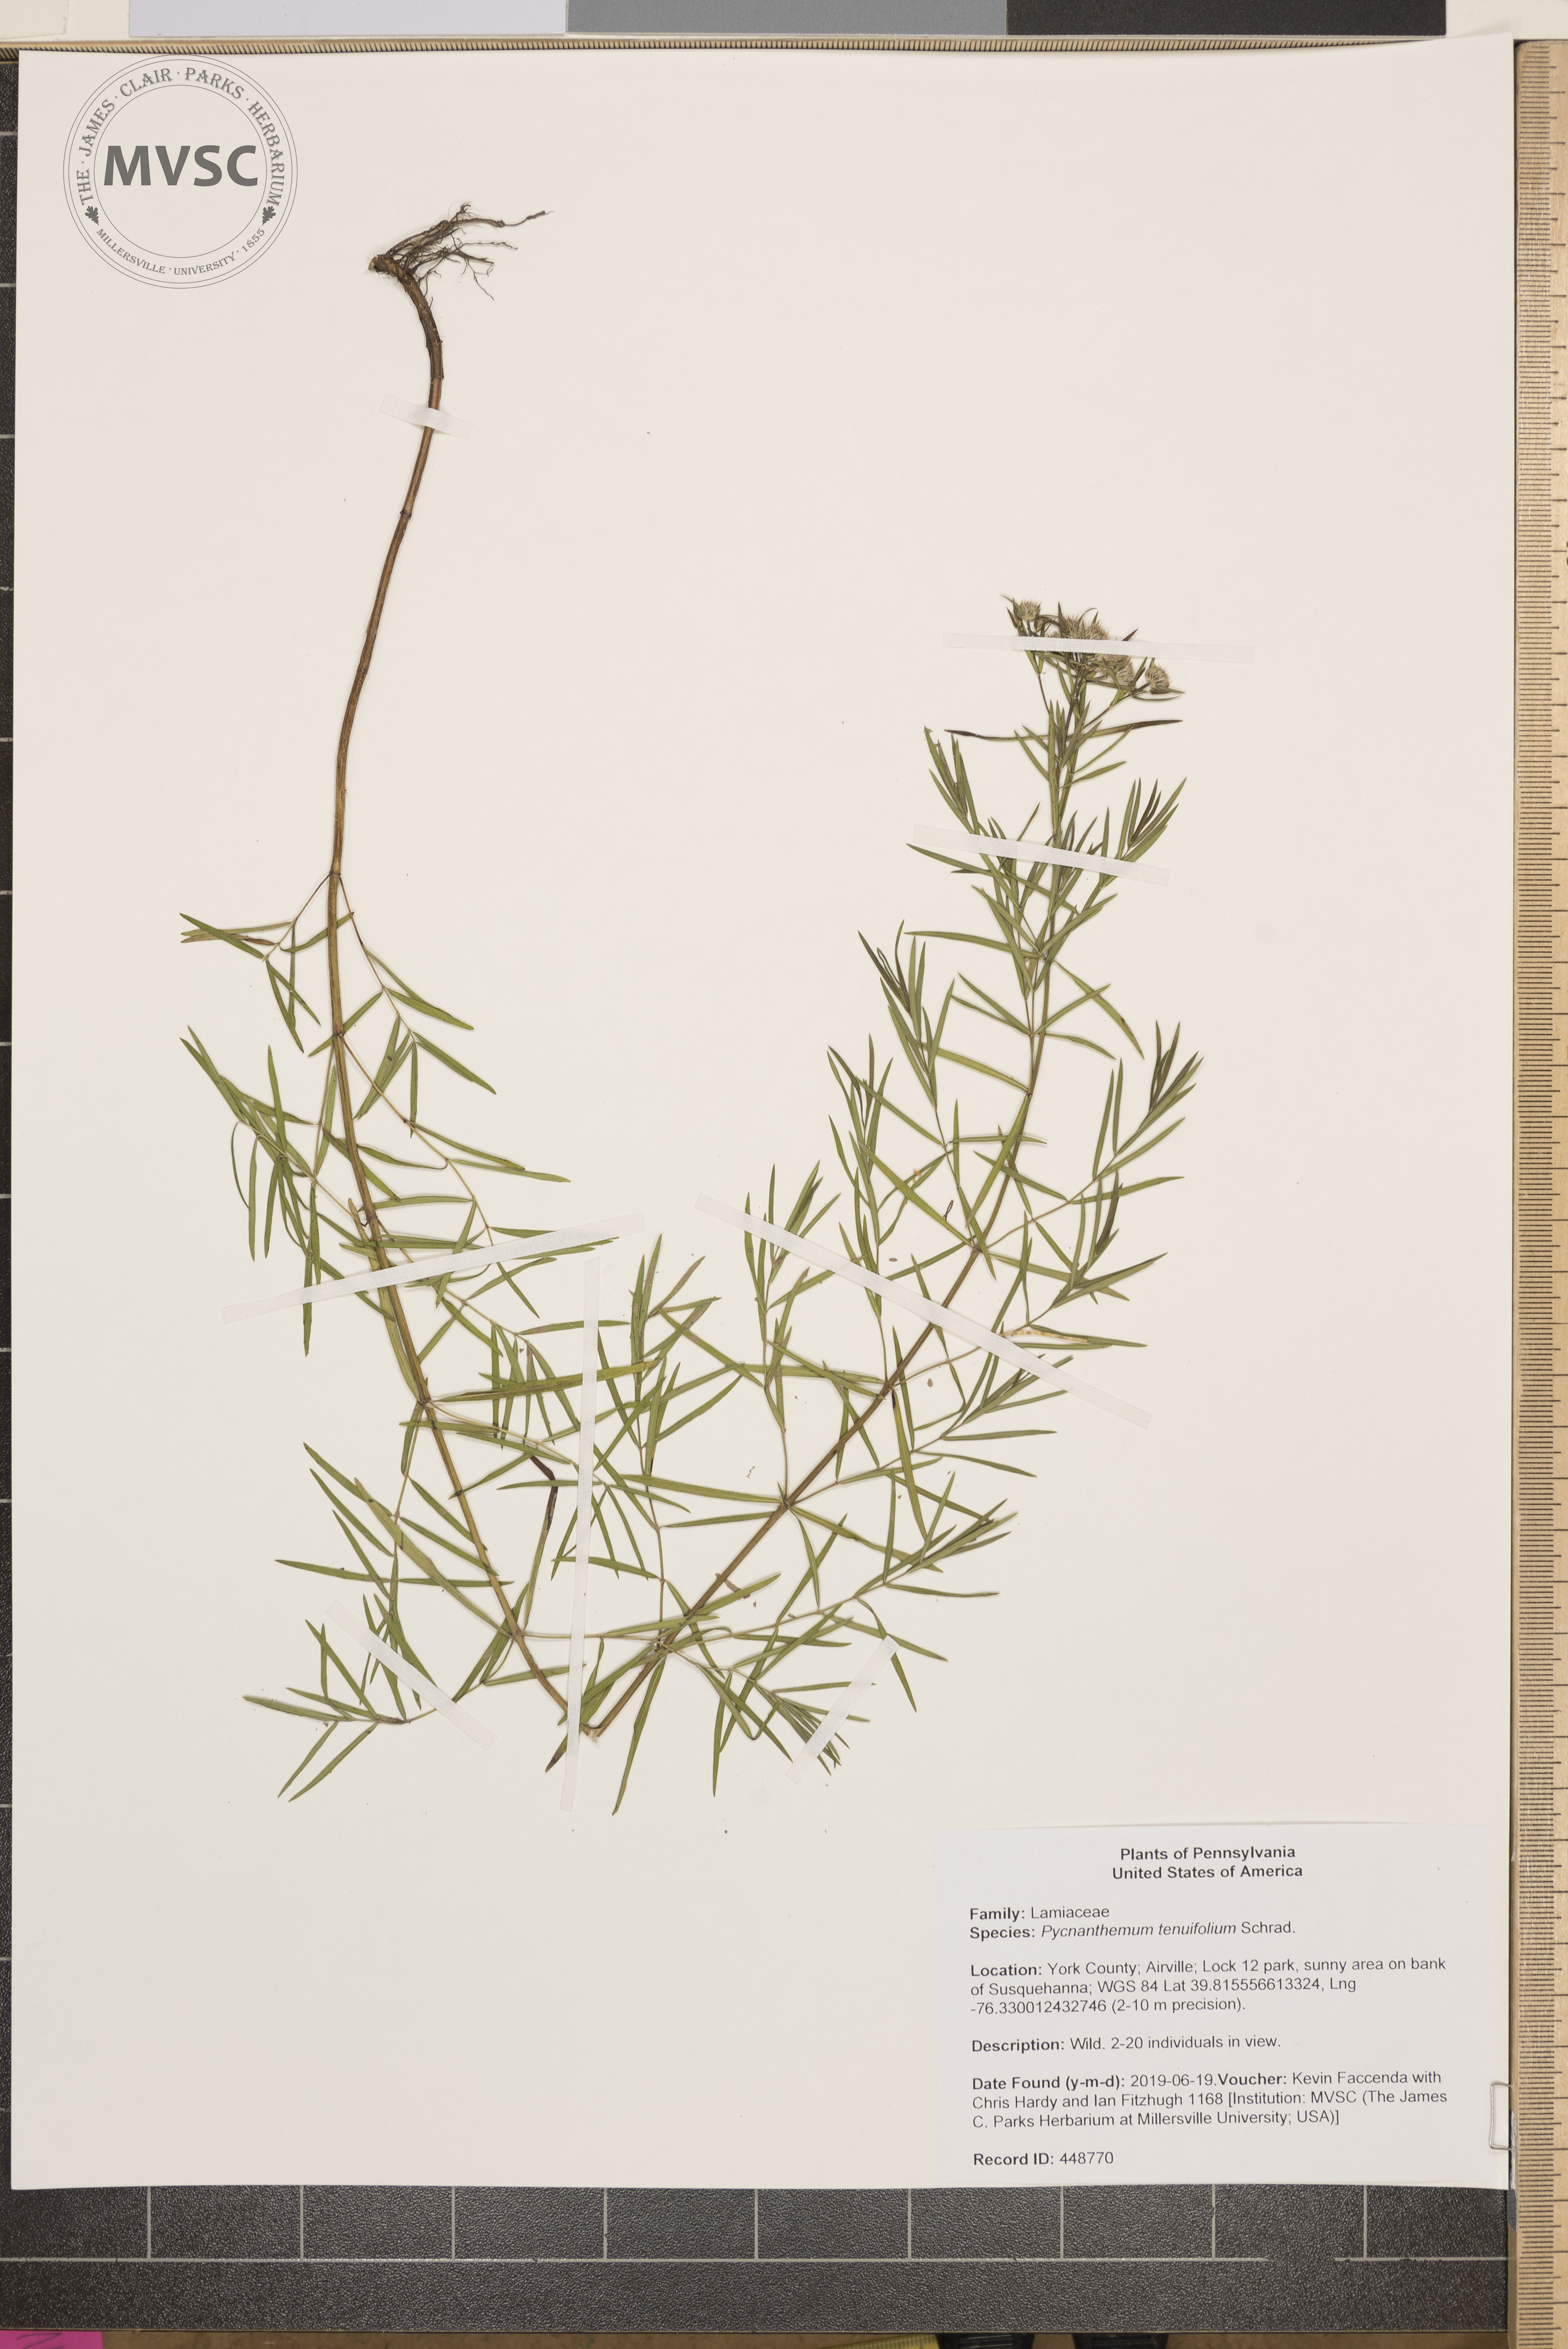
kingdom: Plantae
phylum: Tracheophyta
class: Magnoliopsida
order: Lamiales
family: Lamiaceae
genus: Pycnanthemum
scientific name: Pycnanthemum tenuifolium
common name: Narrow-leaf mountain-mint
